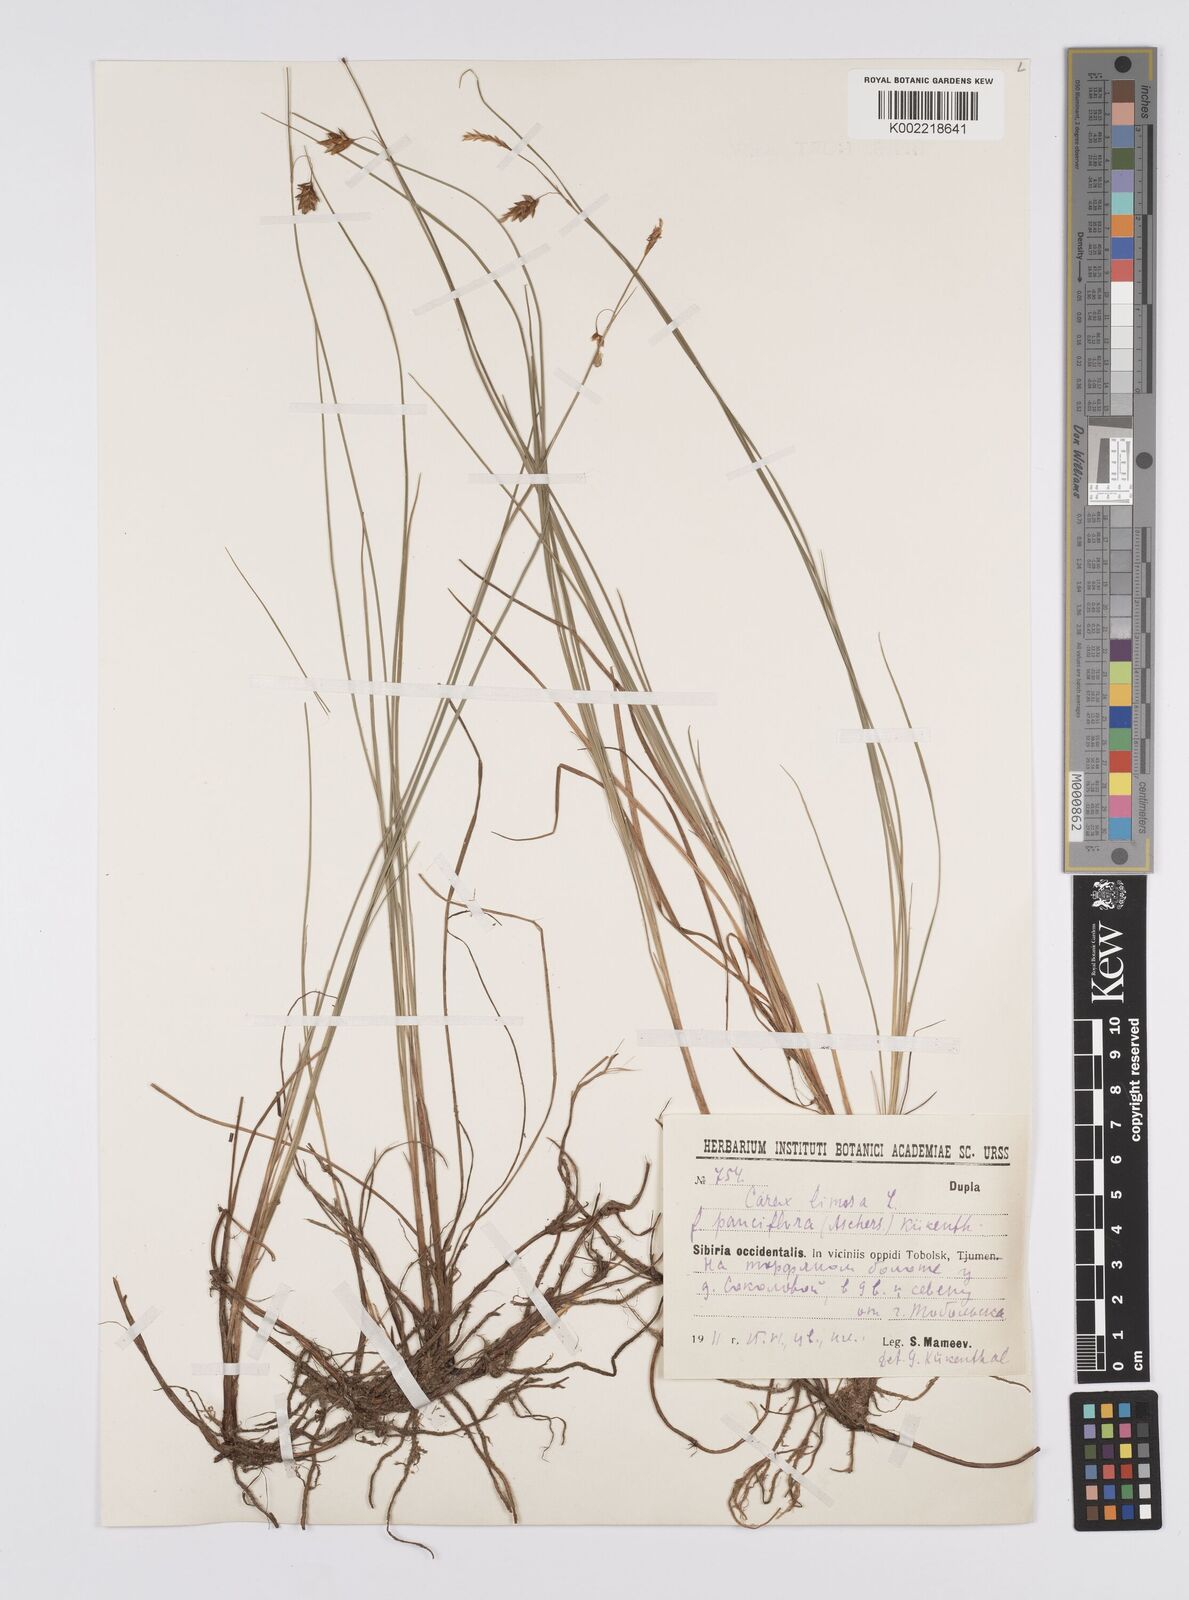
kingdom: Plantae
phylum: Tracheophyta
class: Liliopsida
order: Poales
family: Cyperaceae
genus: Carex
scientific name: Carex limosa
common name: Bog sedge
